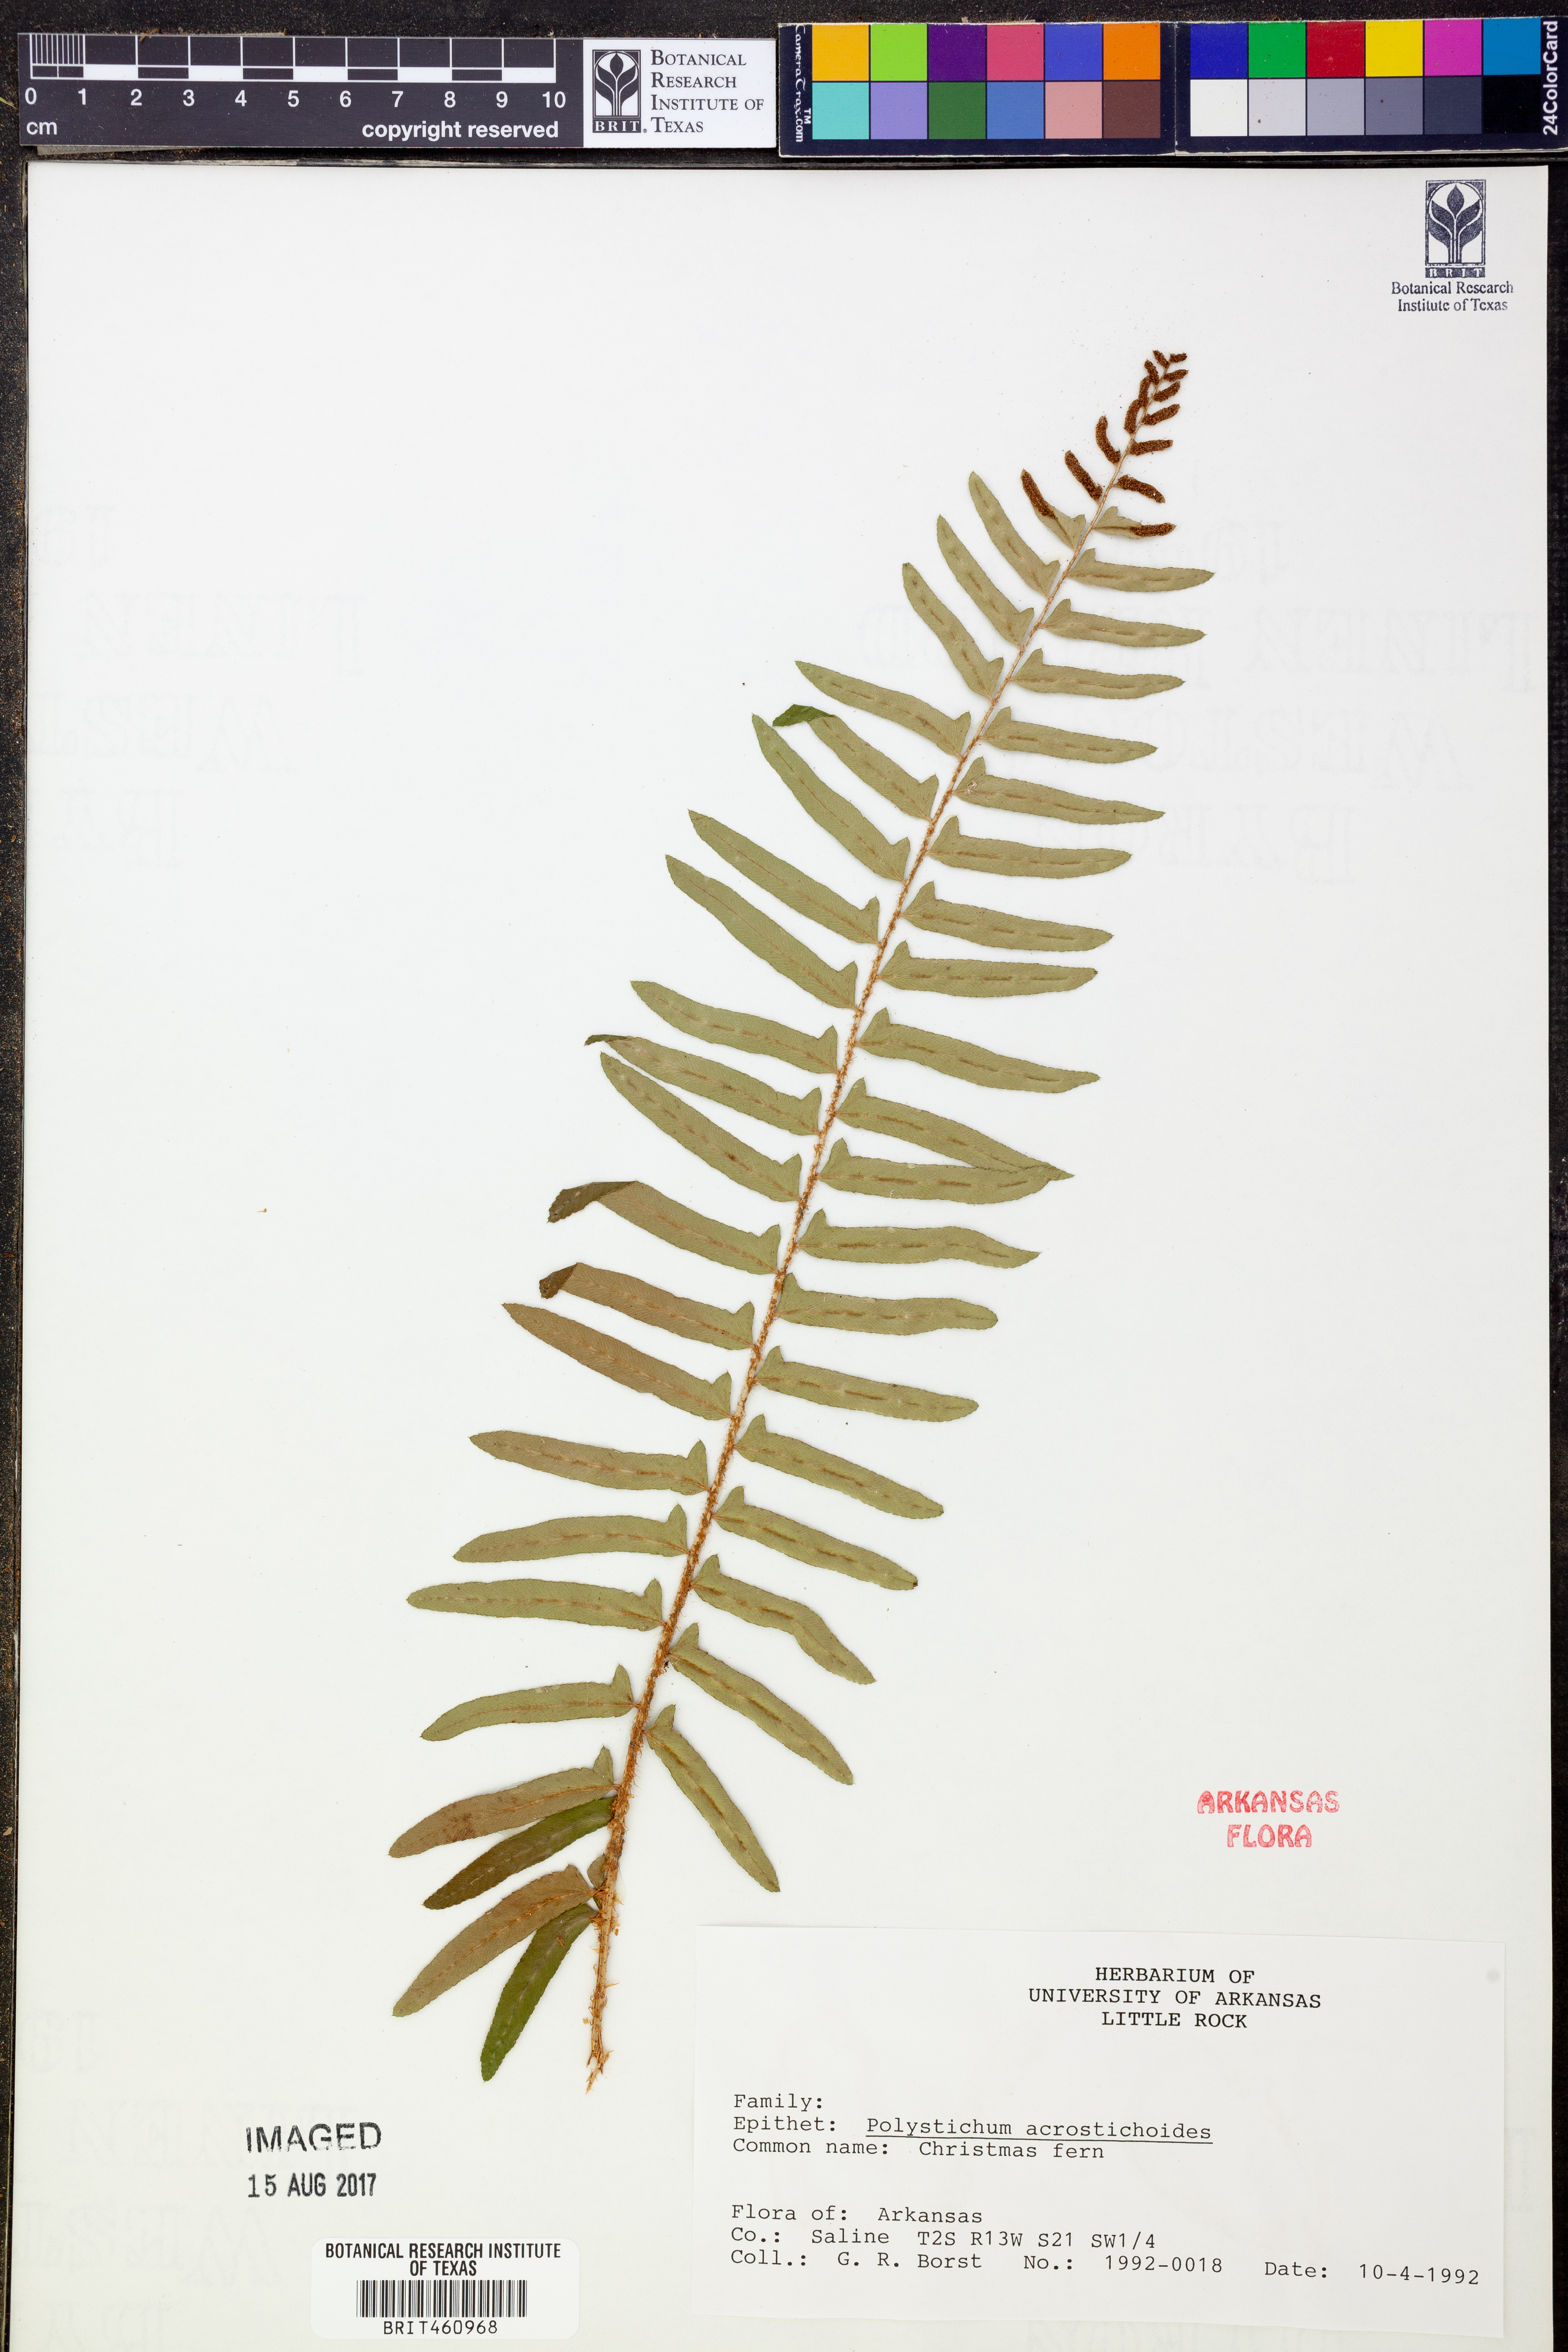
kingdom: Plantae
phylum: Tracheophyta
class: Polypodiopsida
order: Polypodiales
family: Dryopteridaceae
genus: Polystichum
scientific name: Polystichum acrostichoides
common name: Christmas fern
